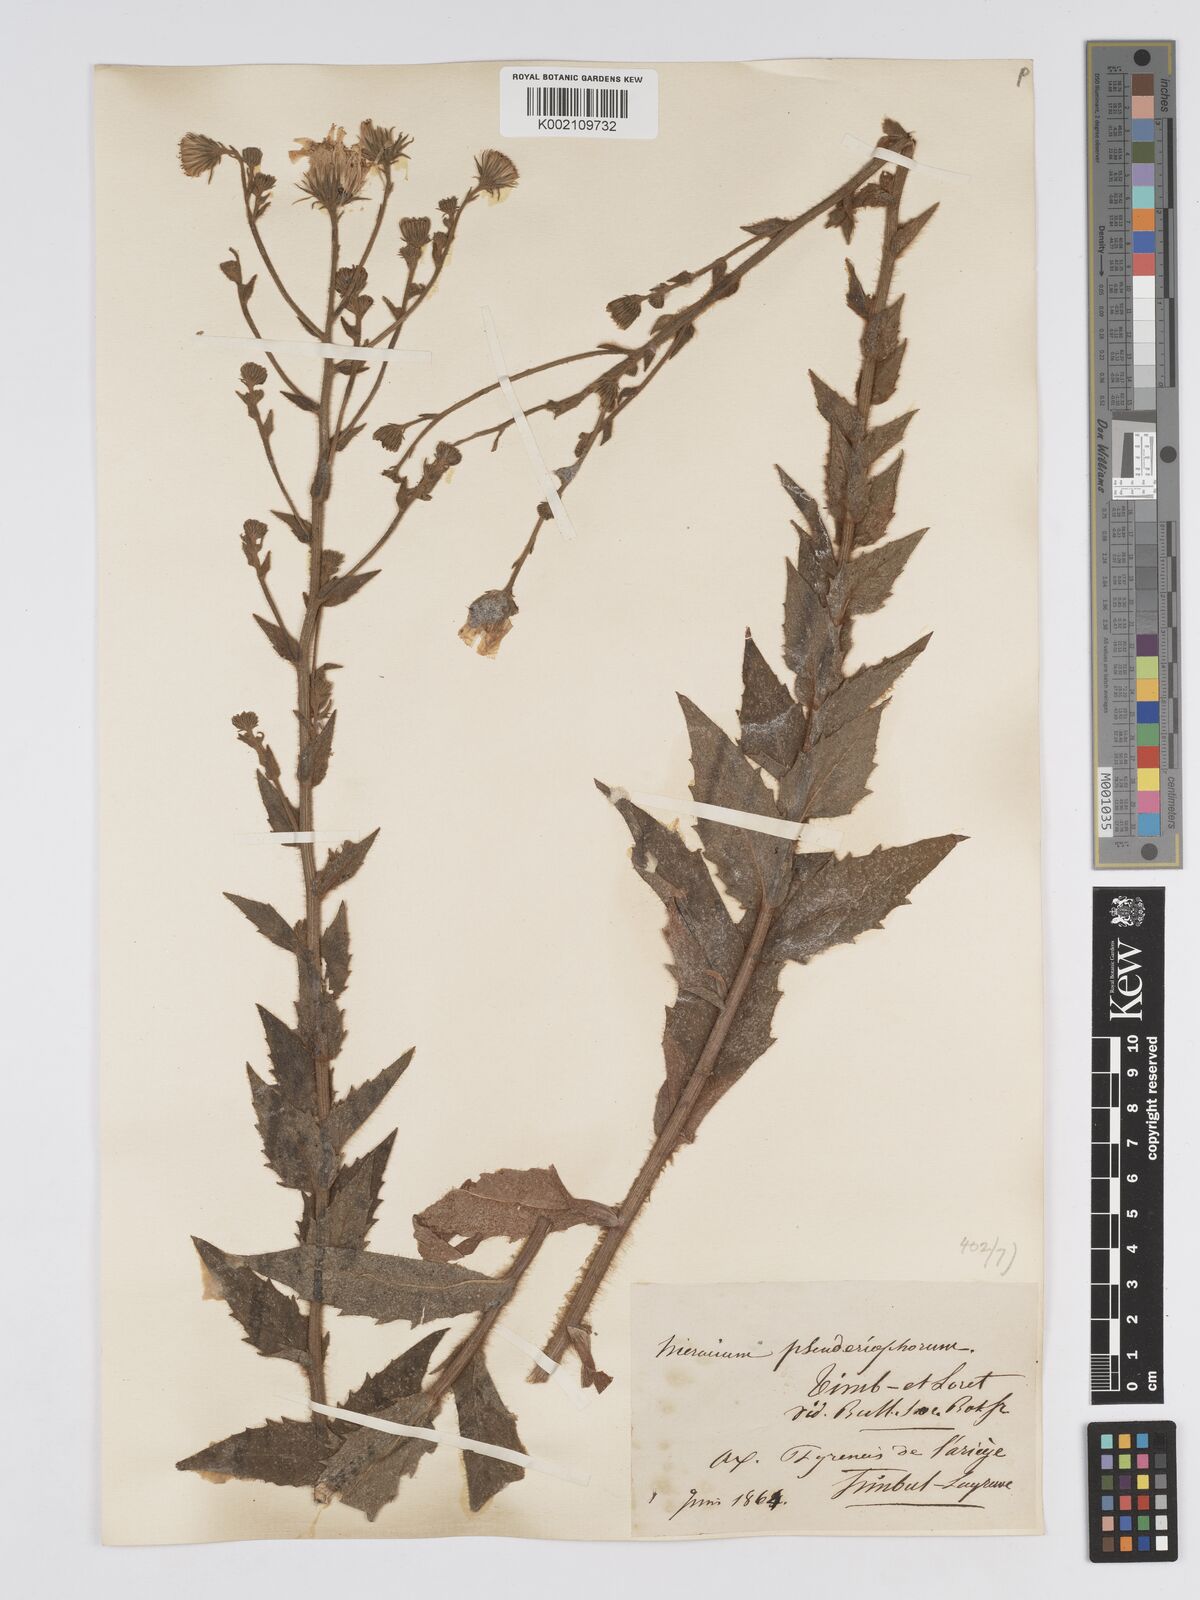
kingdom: Plantae
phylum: Tracheophyta
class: Magnoliopsida
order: Asterales
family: Asteraceae
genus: Hieracium
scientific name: Hieracium patens
